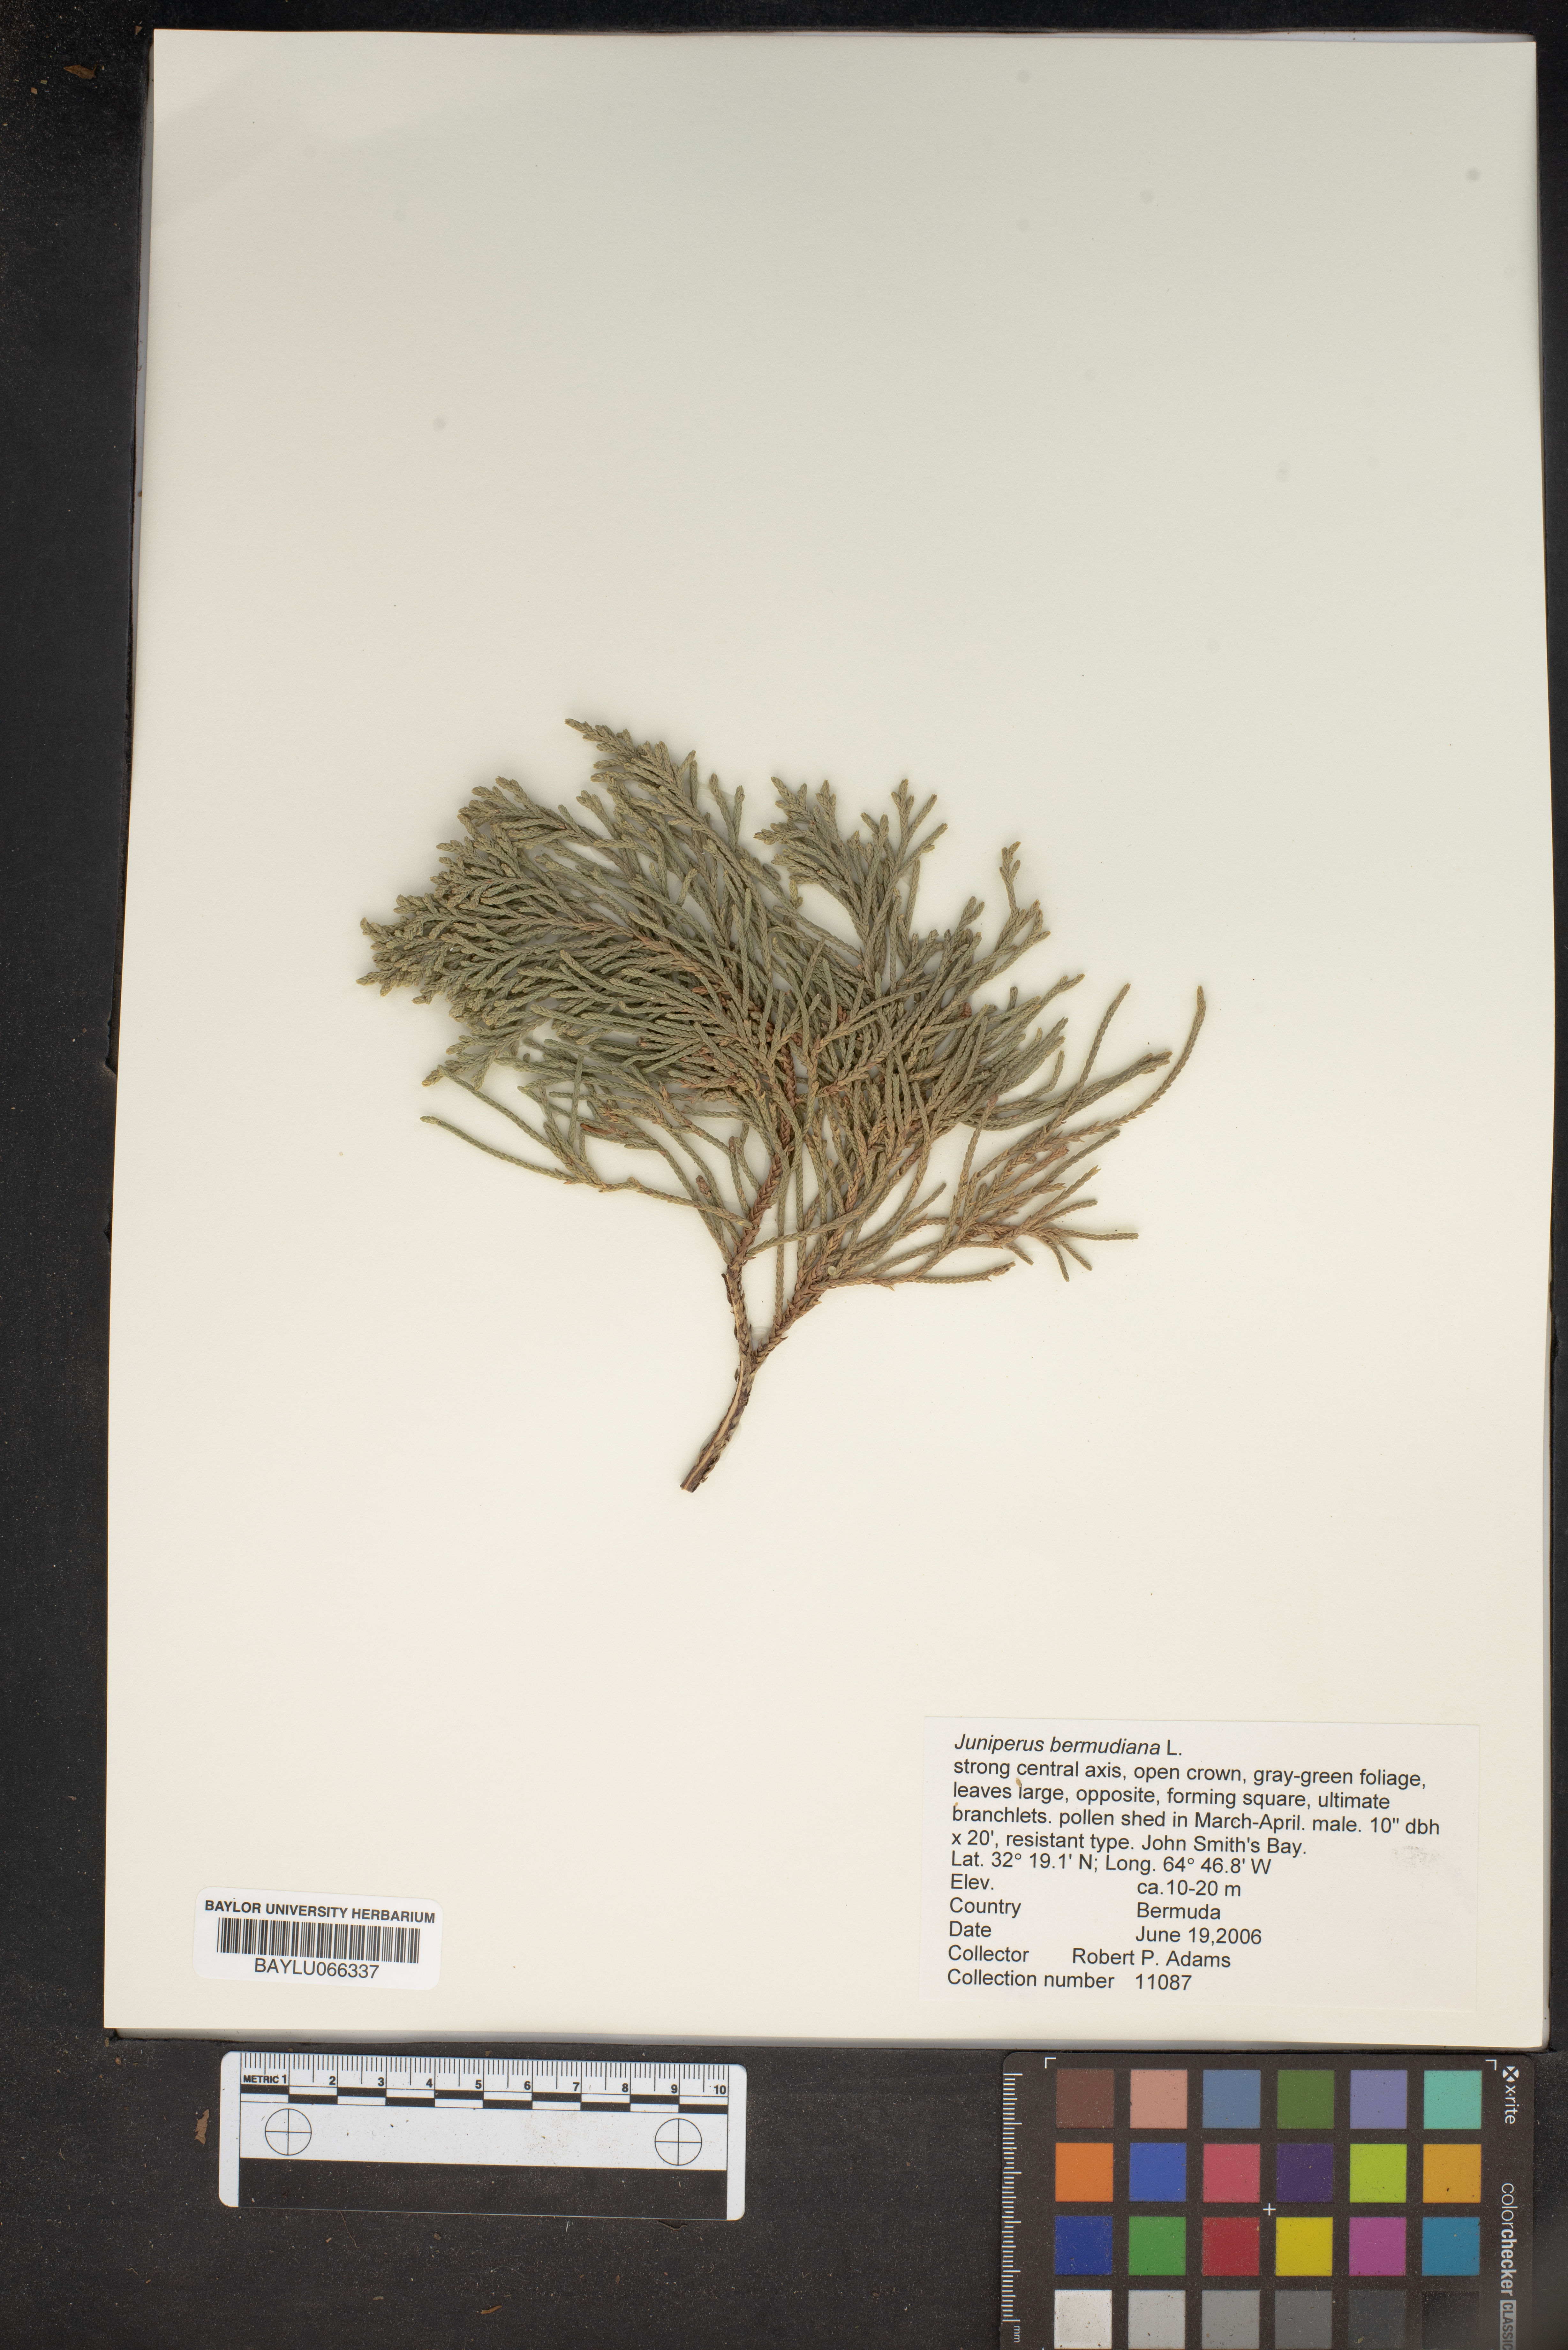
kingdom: Plantae
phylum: Tracheophyta
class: Pinopsida
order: Pinales
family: Cupressaceae
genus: Juniperus
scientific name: Juniperus bermudiana
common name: Bermuda juniper
